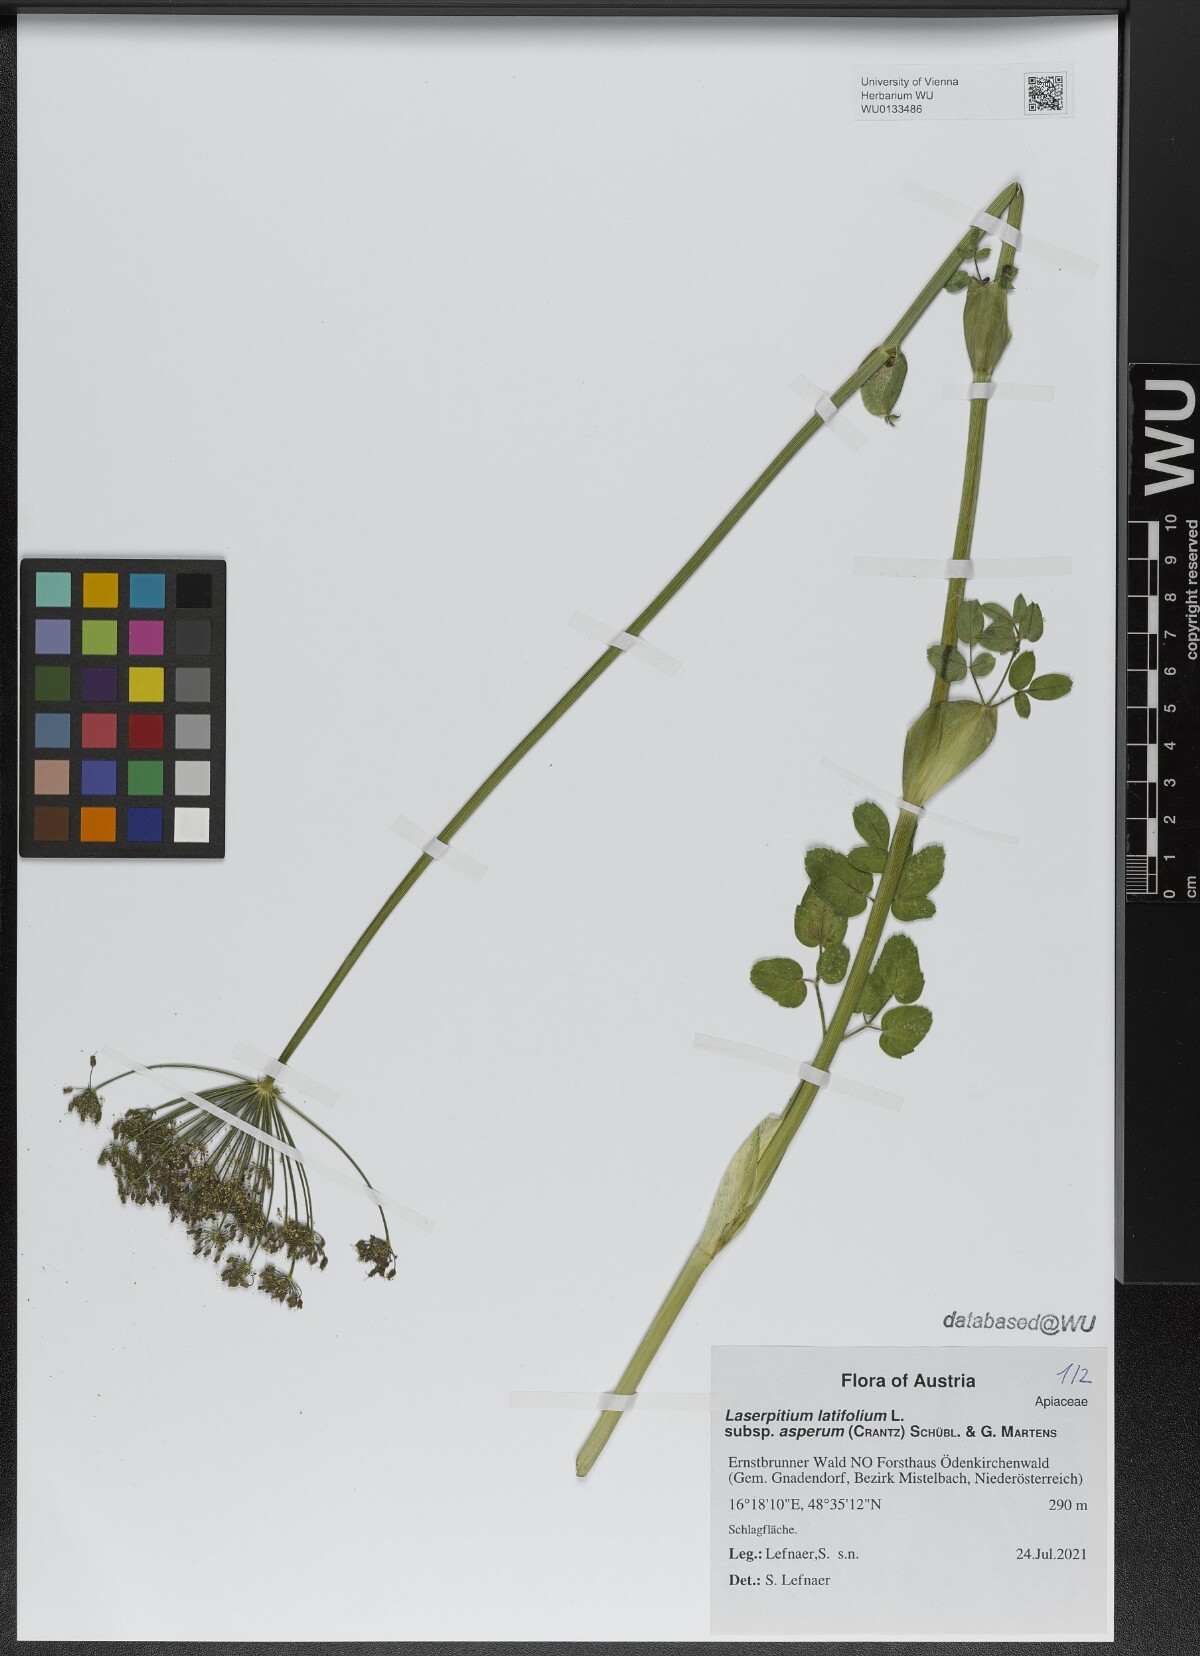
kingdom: Plantae
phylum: Tracheophyta
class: Magnoliopsida
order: Apiales
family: Apiaceae
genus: Laserpitium
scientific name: Laserpitium latifolium
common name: Broadleaf sermountain
